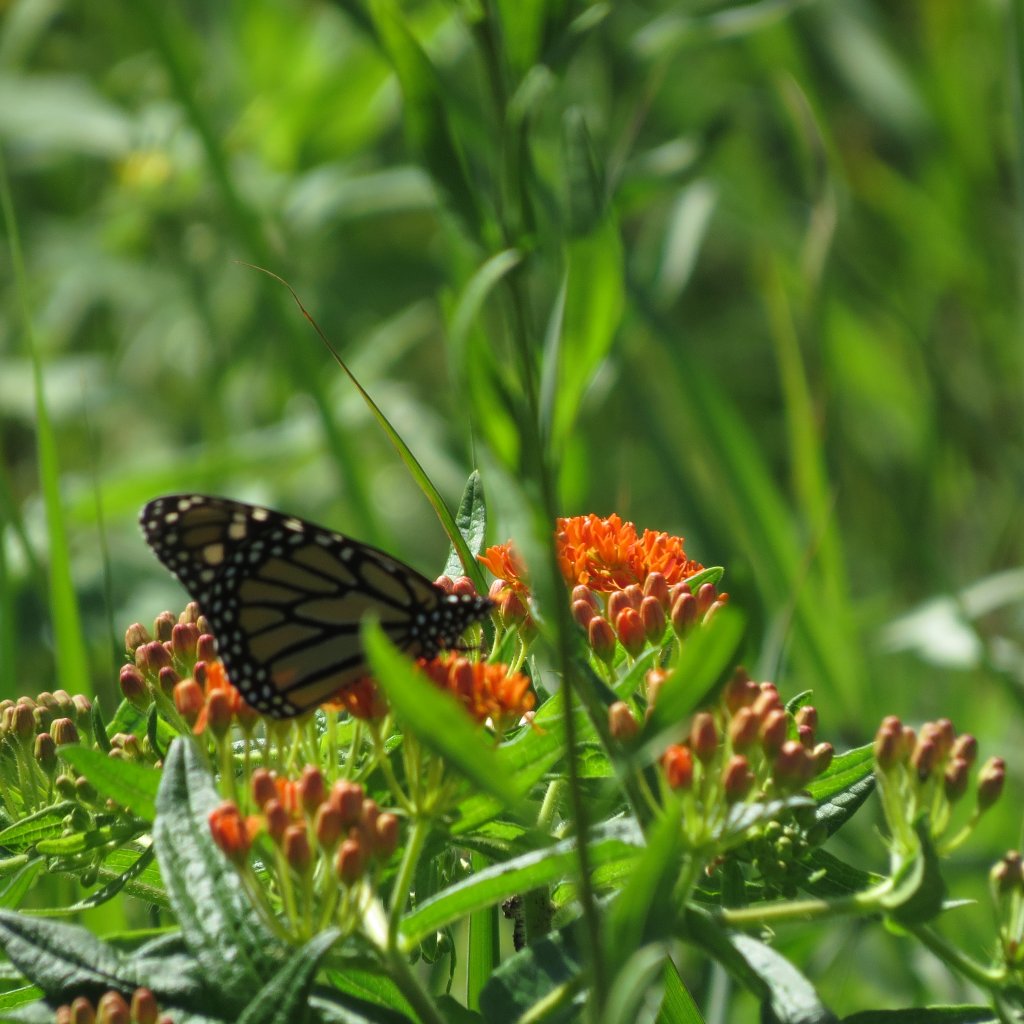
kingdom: Animalia
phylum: Arthropoda
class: Insecta
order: Lepidoptera
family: Nymphalidae
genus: Danaus
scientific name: Danaus plexippus
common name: Monarch
